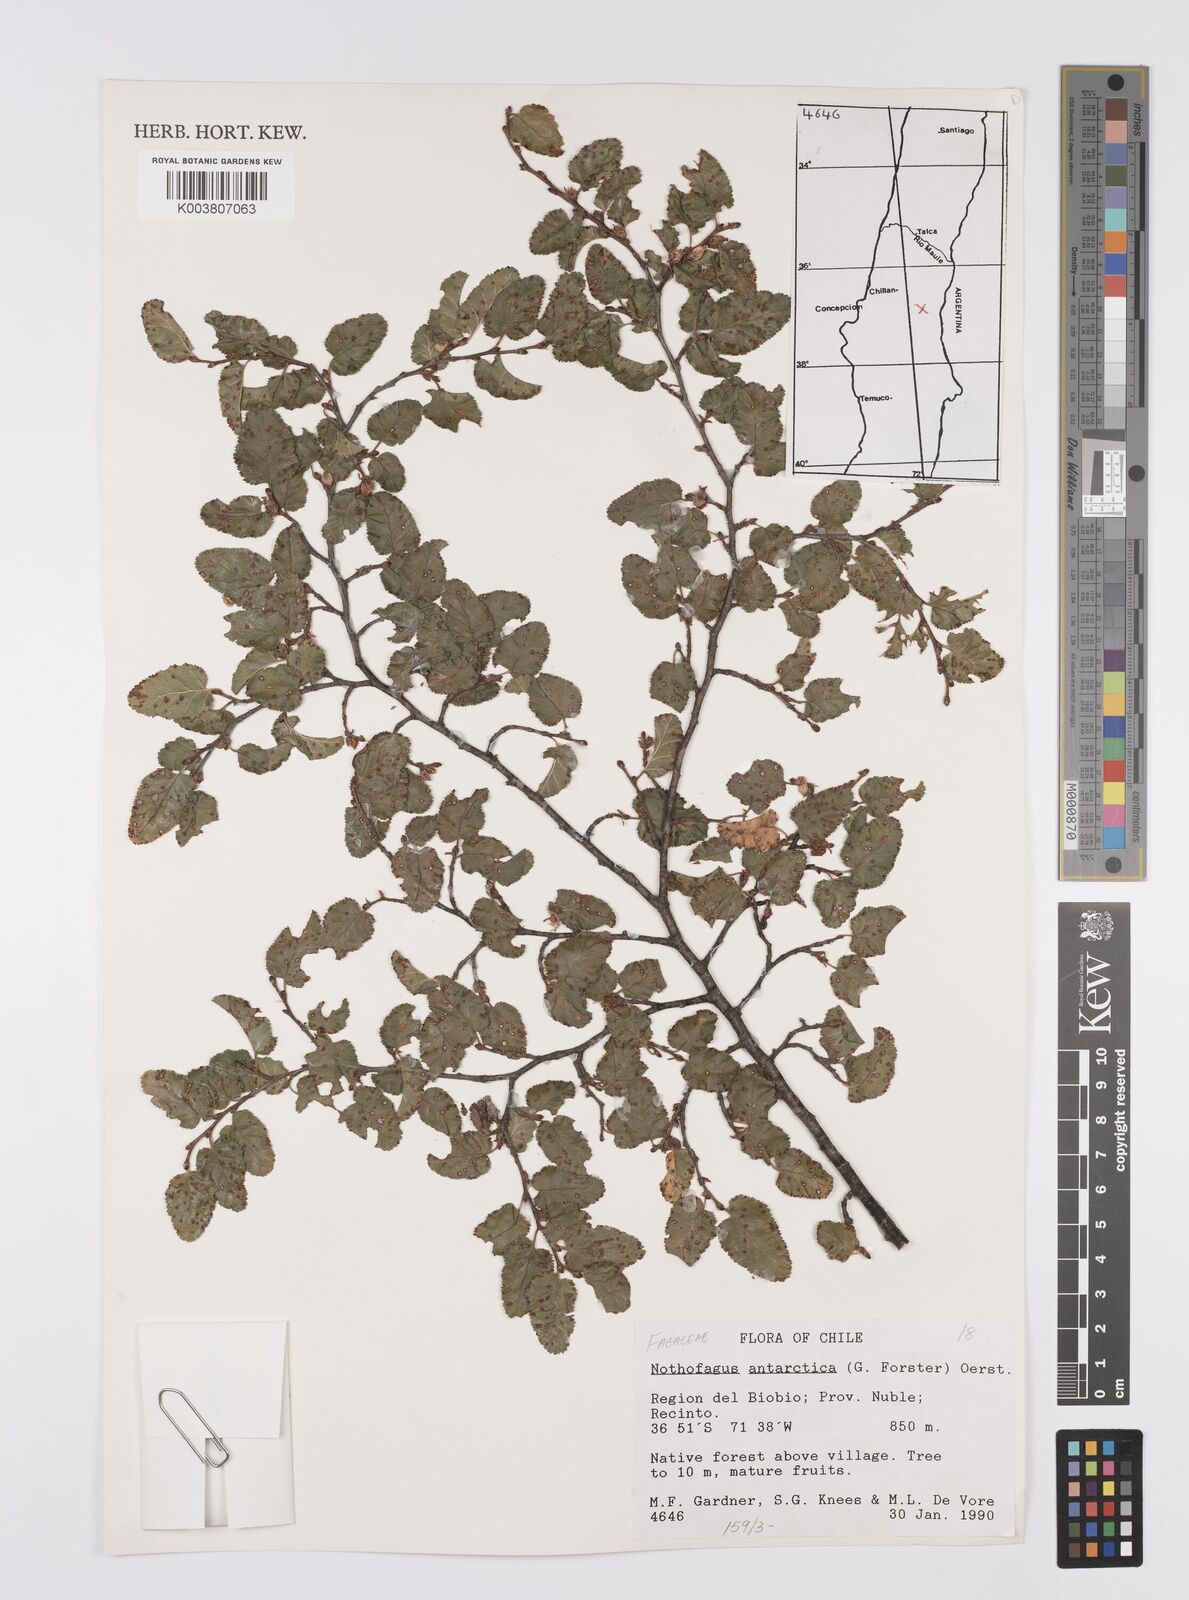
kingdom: Plantae
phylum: Tracheophyta
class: Magnoliopsida
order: Fagales
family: Nothofagaceae
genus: Nothofagus
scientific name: Nothofagus antarctica
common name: Antarctic beech
